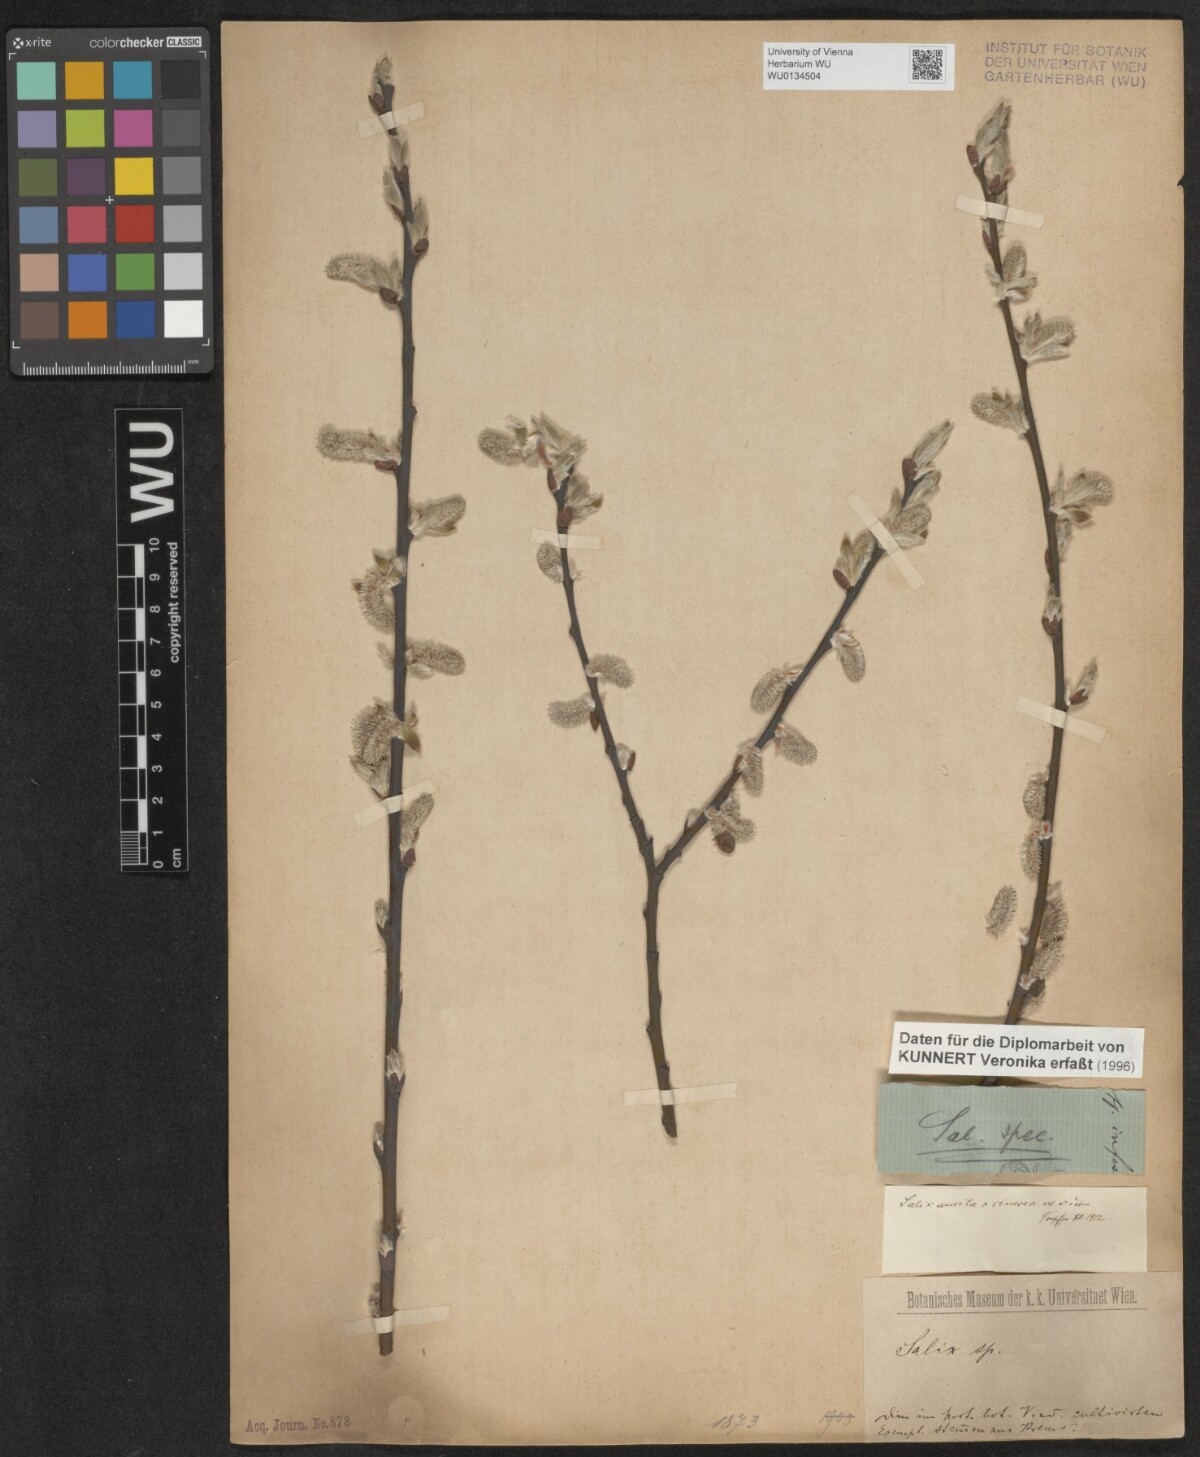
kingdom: Plantae
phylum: Tracheophyta
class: Magnoliopsida
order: Malpighiales
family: Salicaceae
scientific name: Salicaceae
